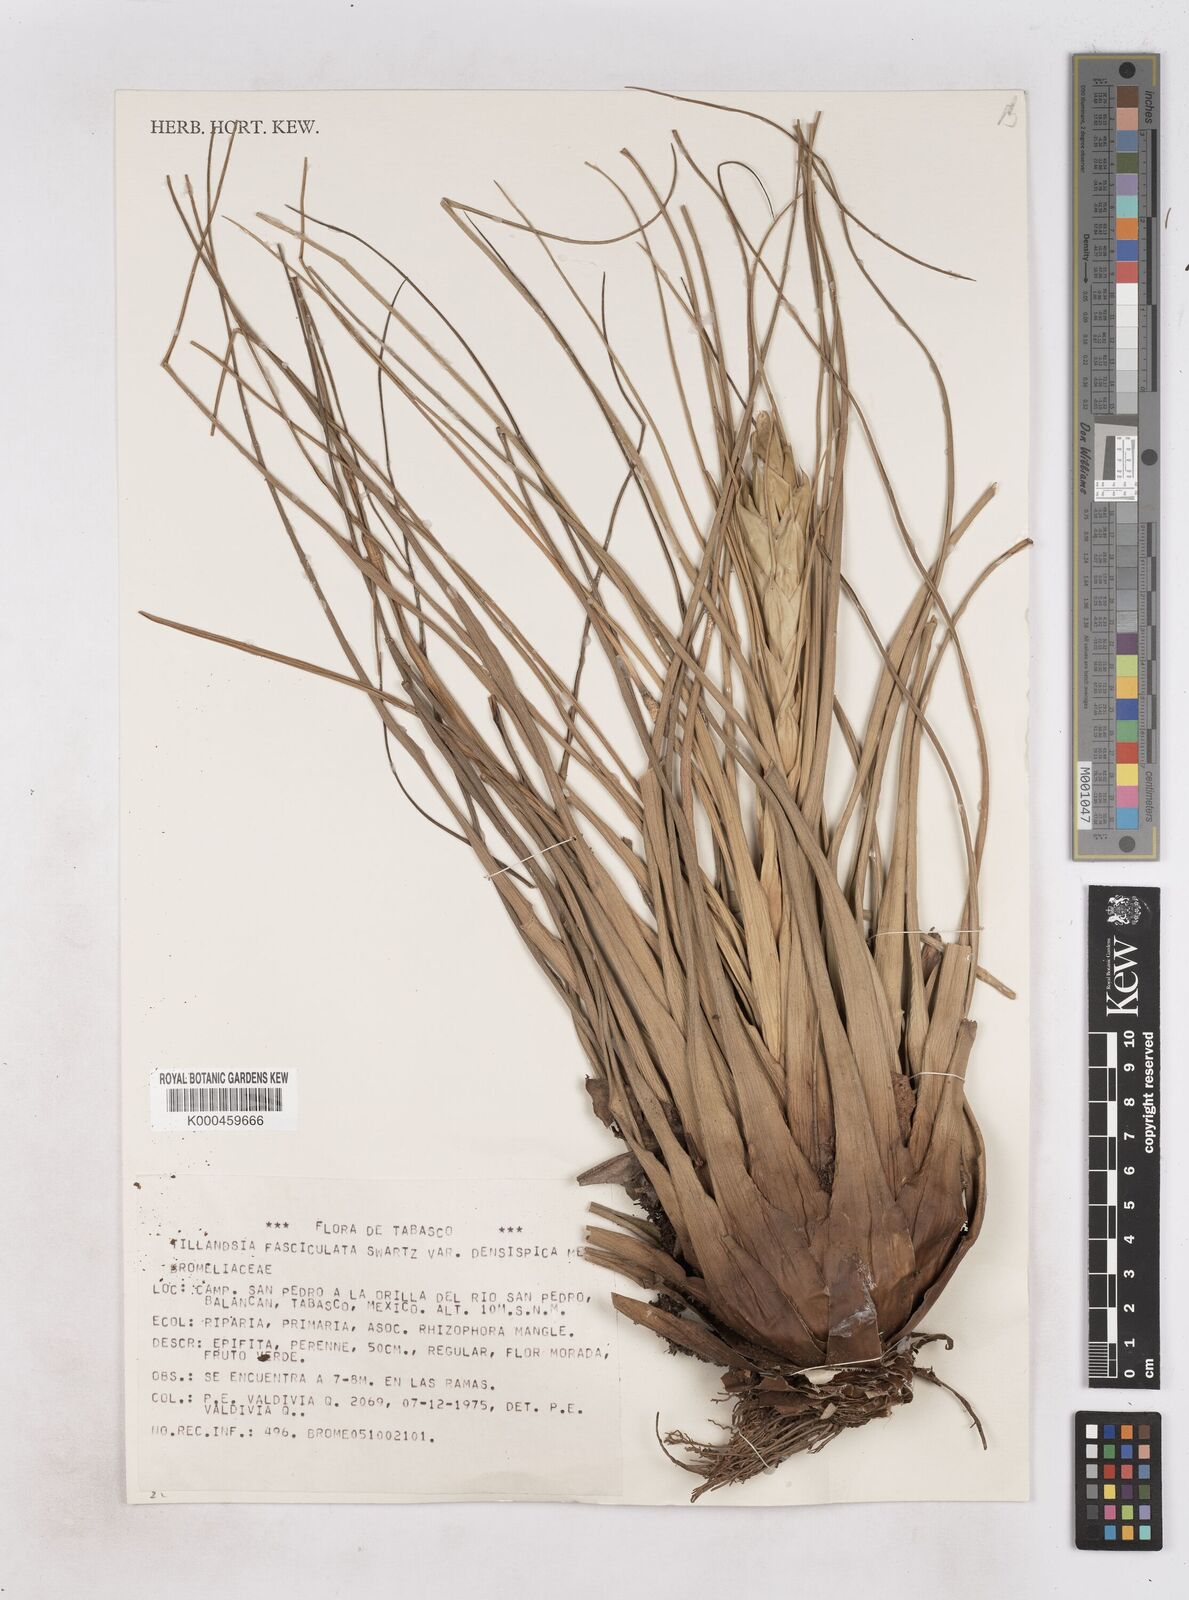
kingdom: Plantae
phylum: Tracheophyta
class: Liliopsida
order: Poales
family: Bromeliaceae
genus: Tillandsia
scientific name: Tillandsia fasciculata
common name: Giant airplant
